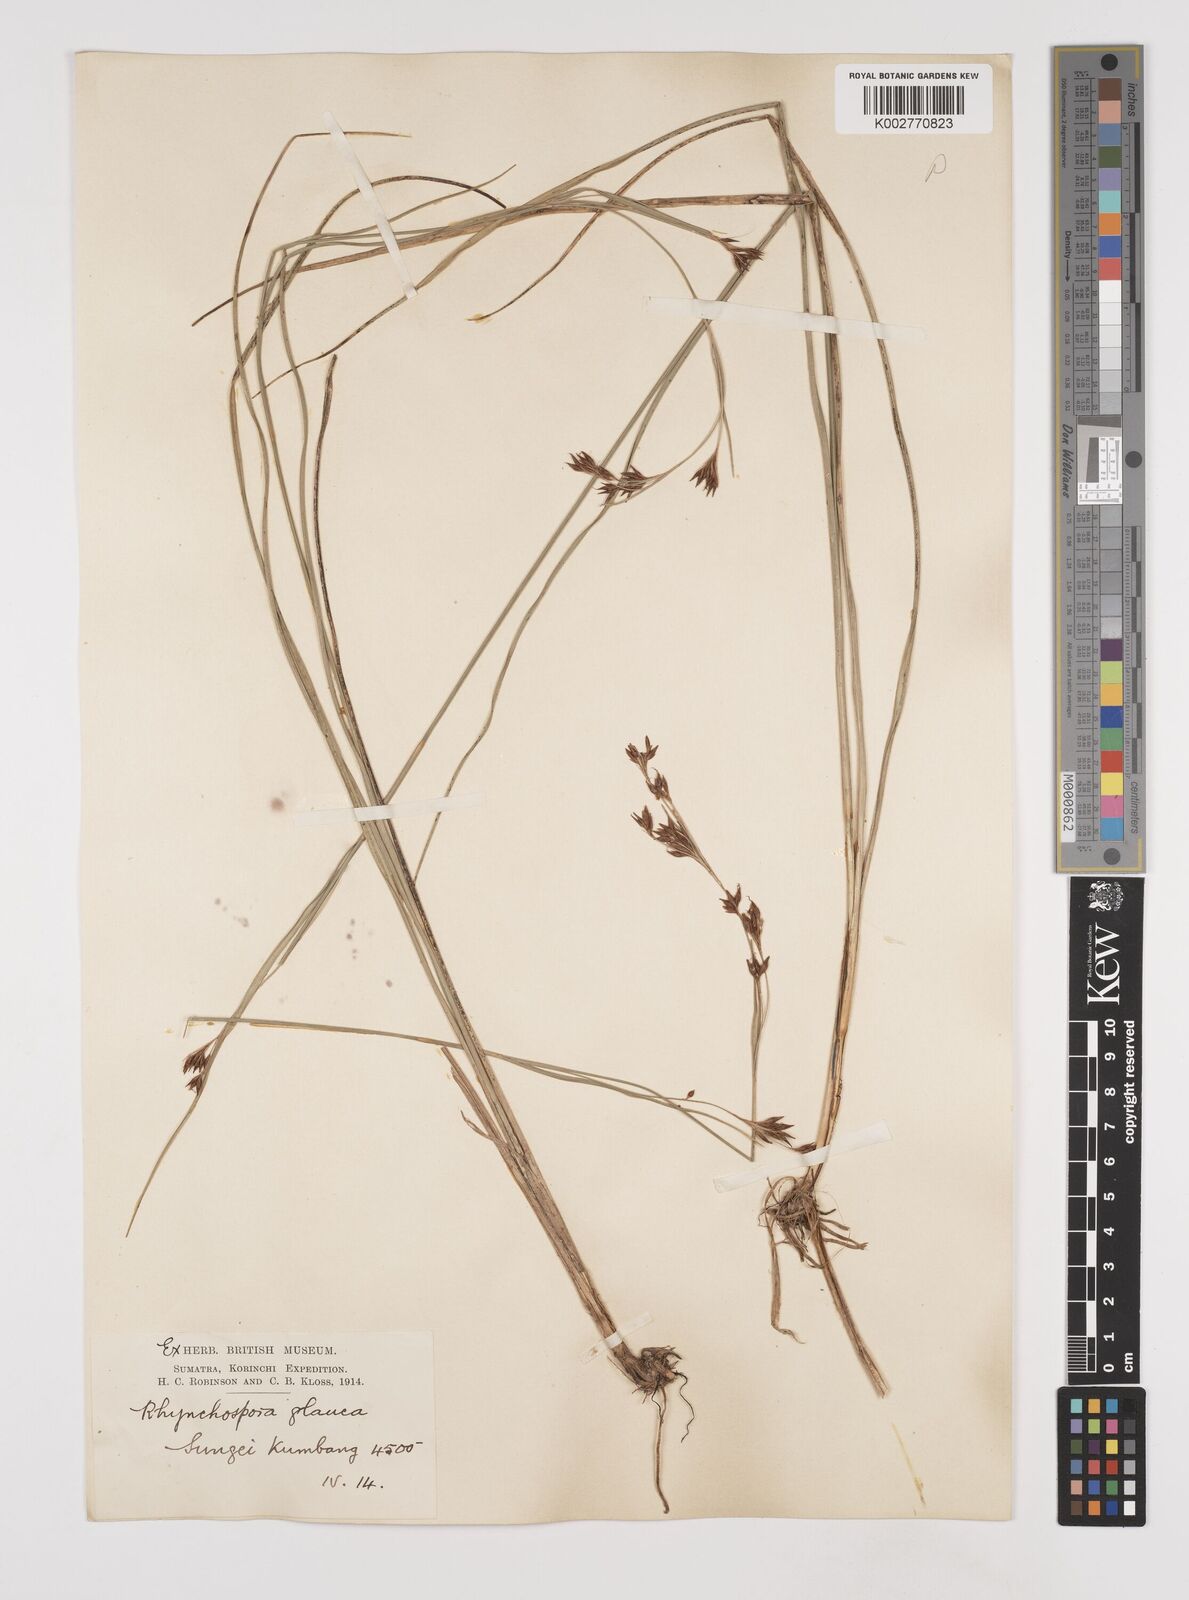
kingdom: Plantae
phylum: Tracheophyta
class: Liliopsida
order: Poales
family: Cyperaceae
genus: Rhynchospora
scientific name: Rhynchospora rugosa
